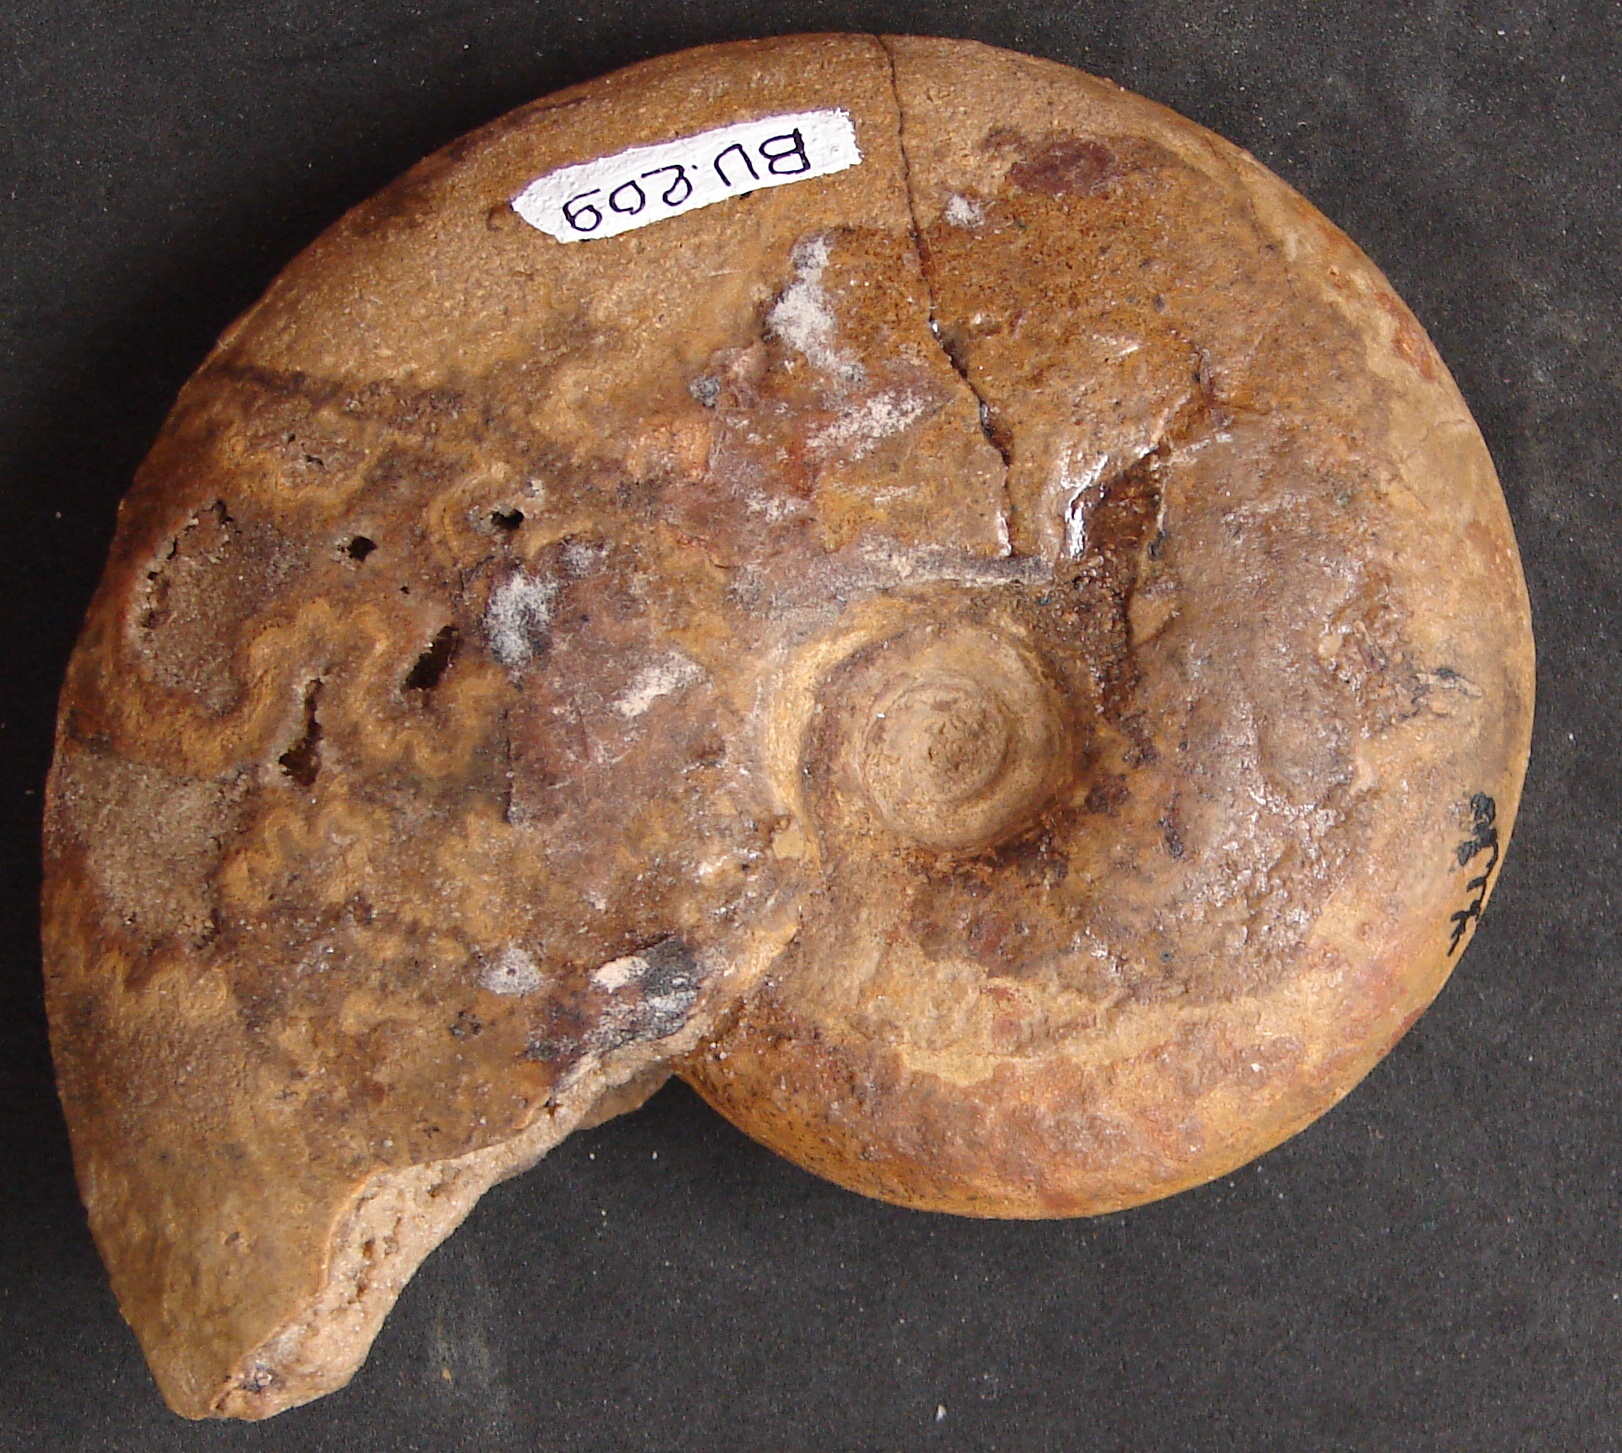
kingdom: Animalia
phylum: Mollusca
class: Cephalopoda
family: Sonniniidae
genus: Dorsetensia
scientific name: Dorsetensia
